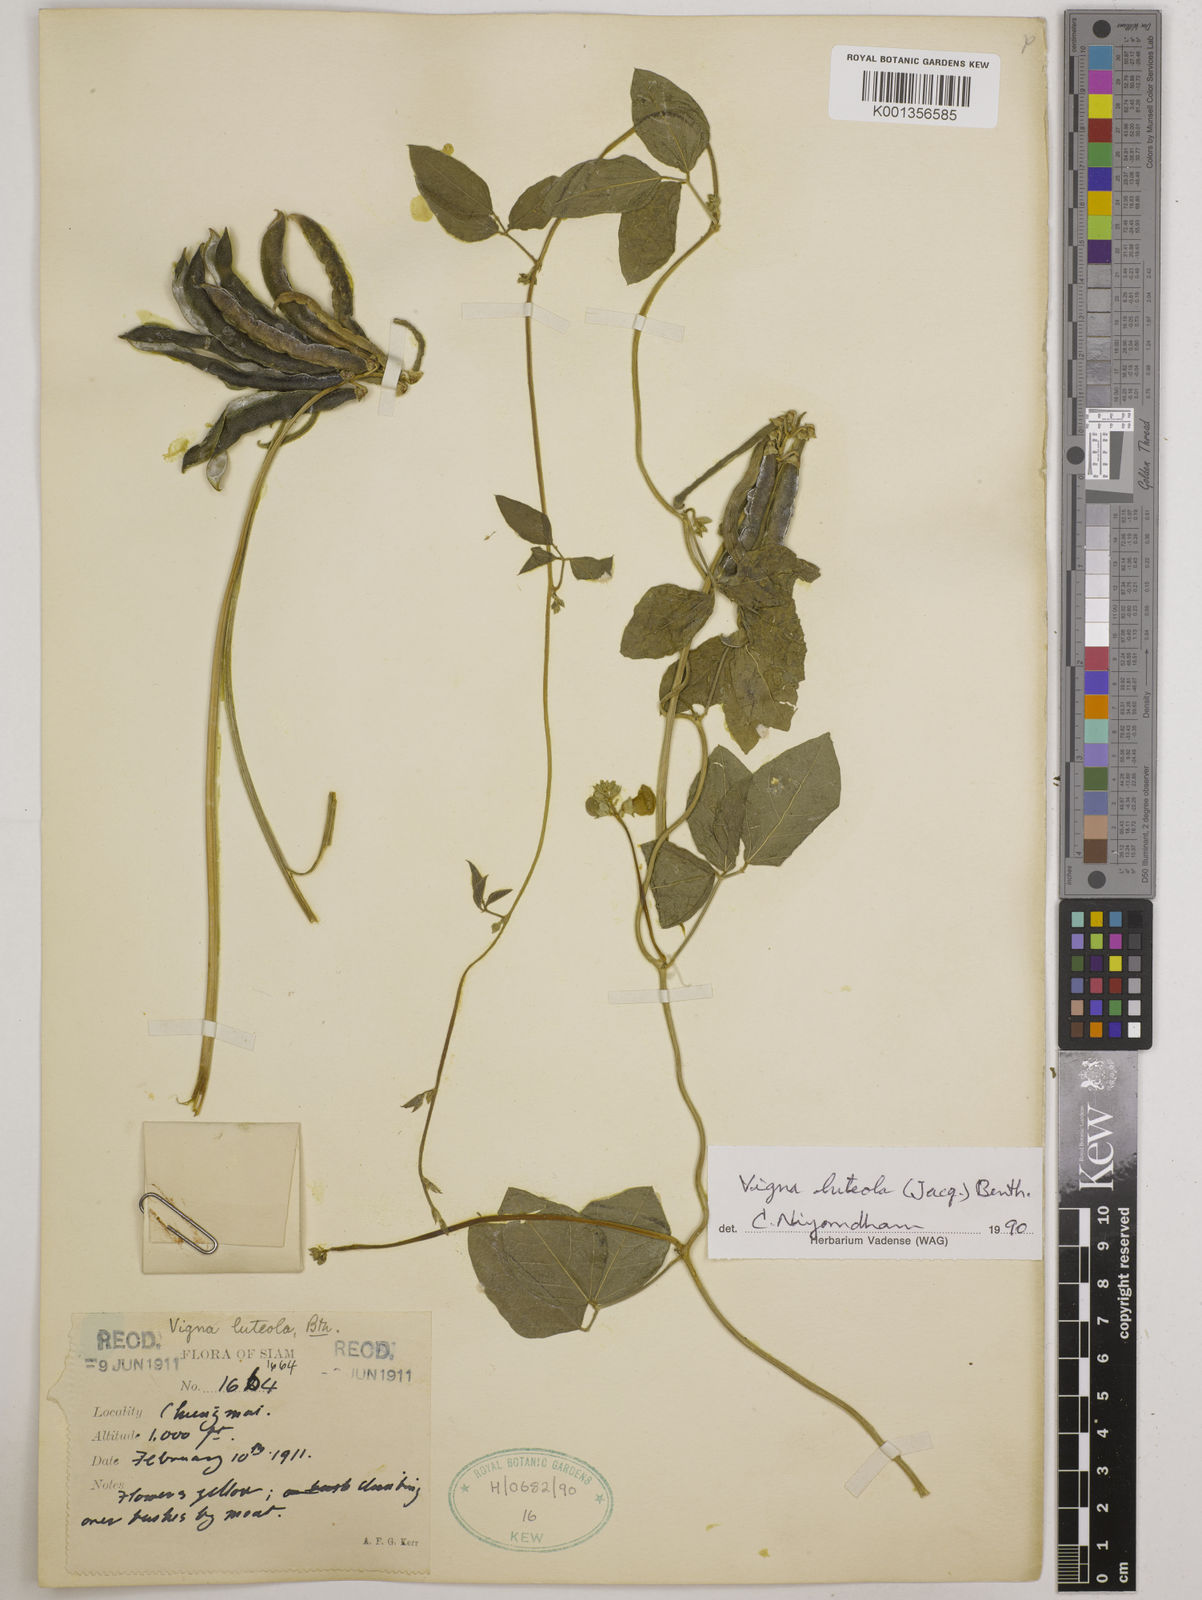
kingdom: Plantae
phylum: Tracheophyta
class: Magnoliopsida
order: Fabales
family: Fabaceae
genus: Vigna
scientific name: Vigna luteola
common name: Hairypod cowpea
